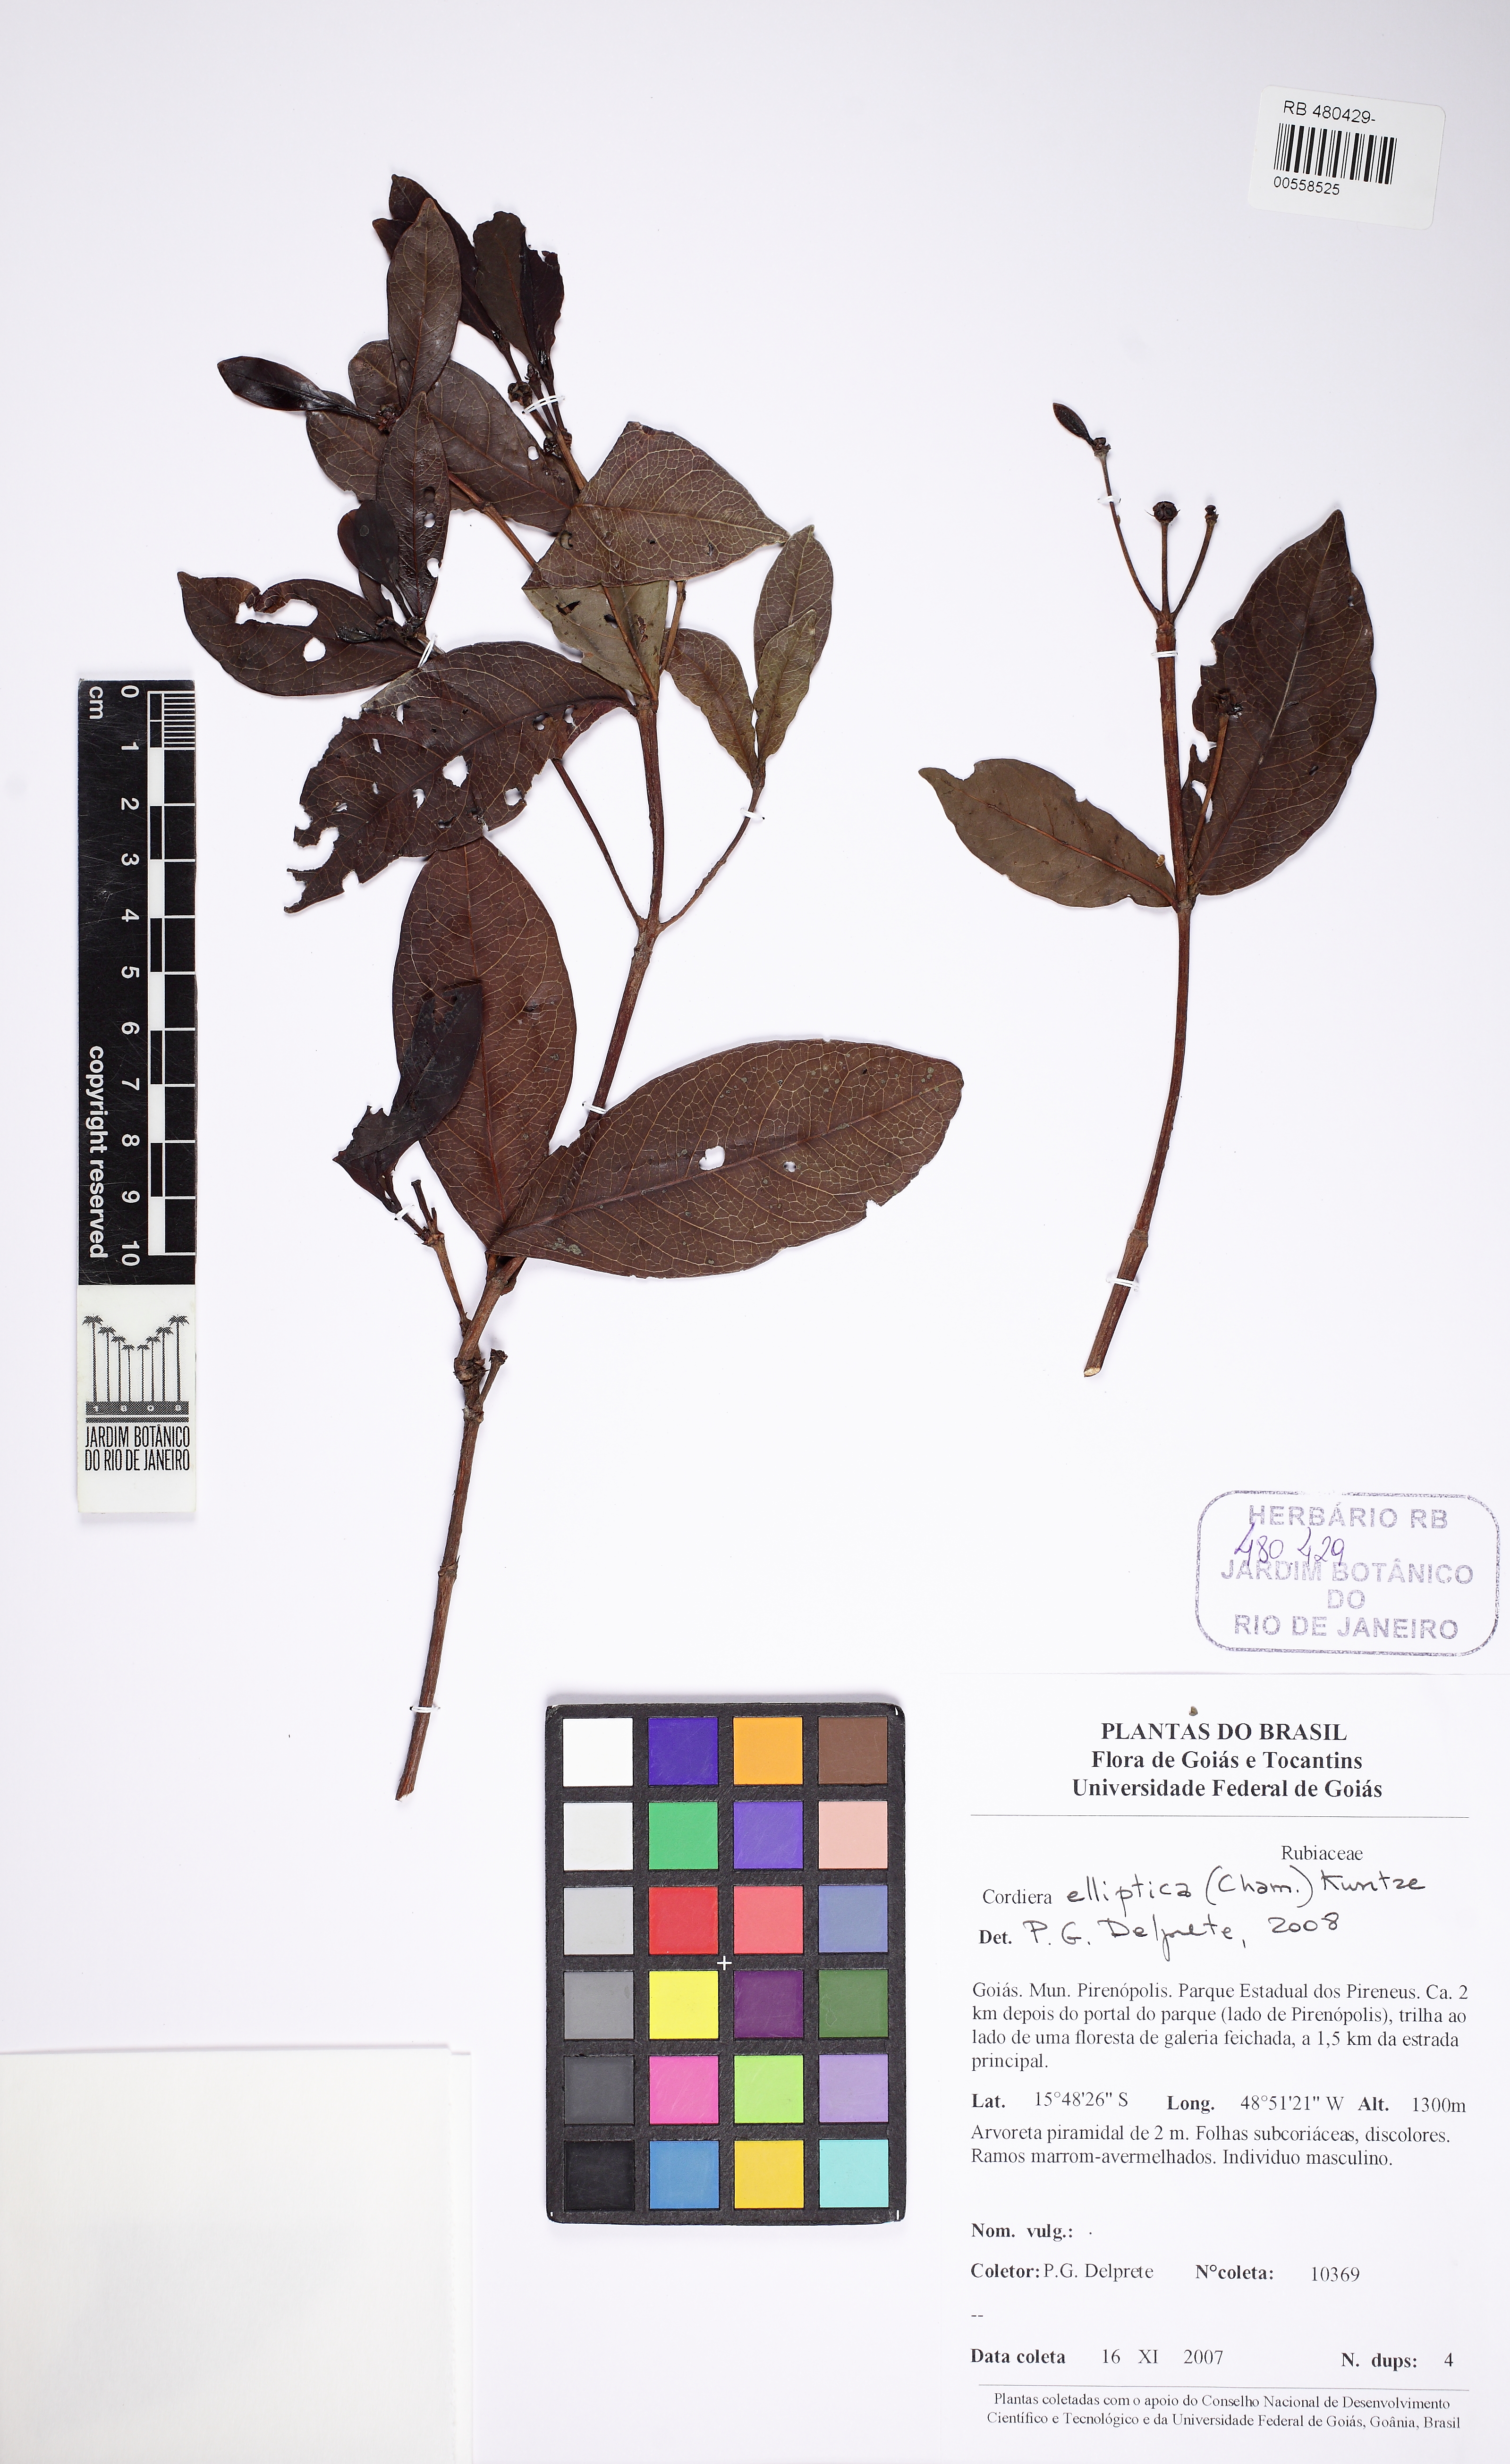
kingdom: Plantae
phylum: Tracheophyta
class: Magnoliopsida
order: Gentianales
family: Rubiaceae
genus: Cordiera
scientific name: Cordiera elliptica
